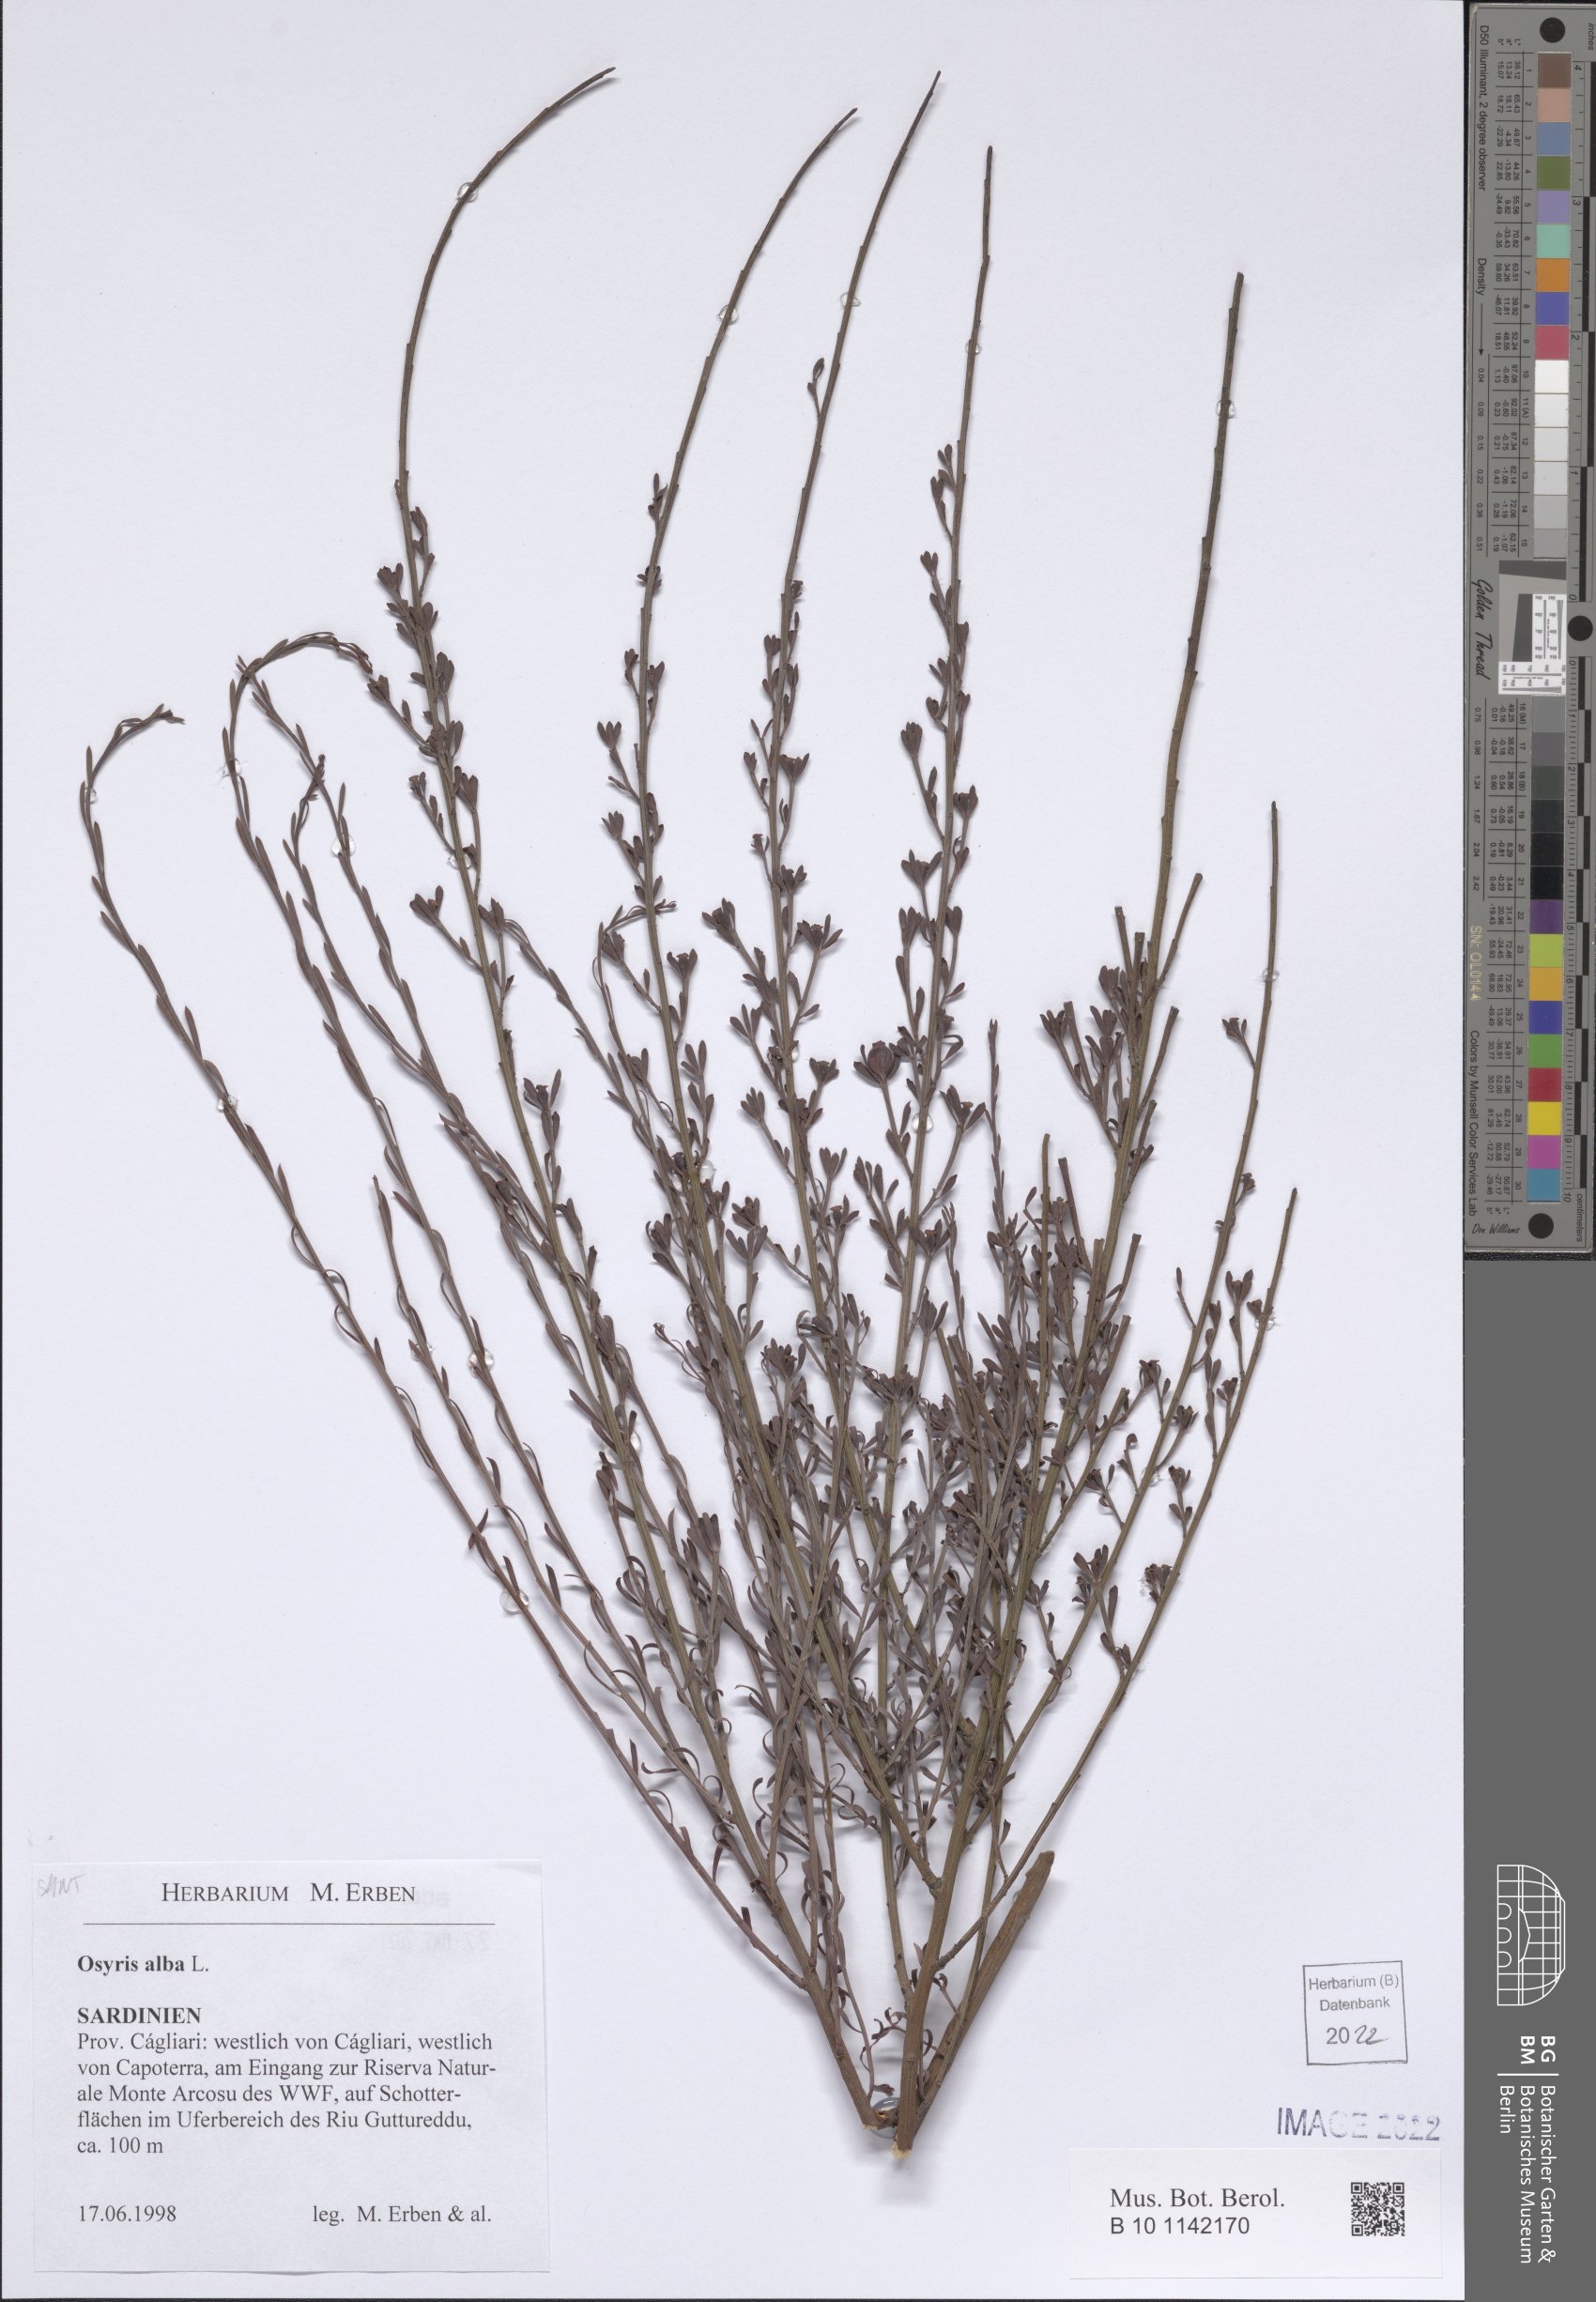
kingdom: Plantae
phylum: Tracheophyta
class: Magnoliopsida
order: Santalales
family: Santalaceae
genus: Osyris
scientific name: Osyris alba
